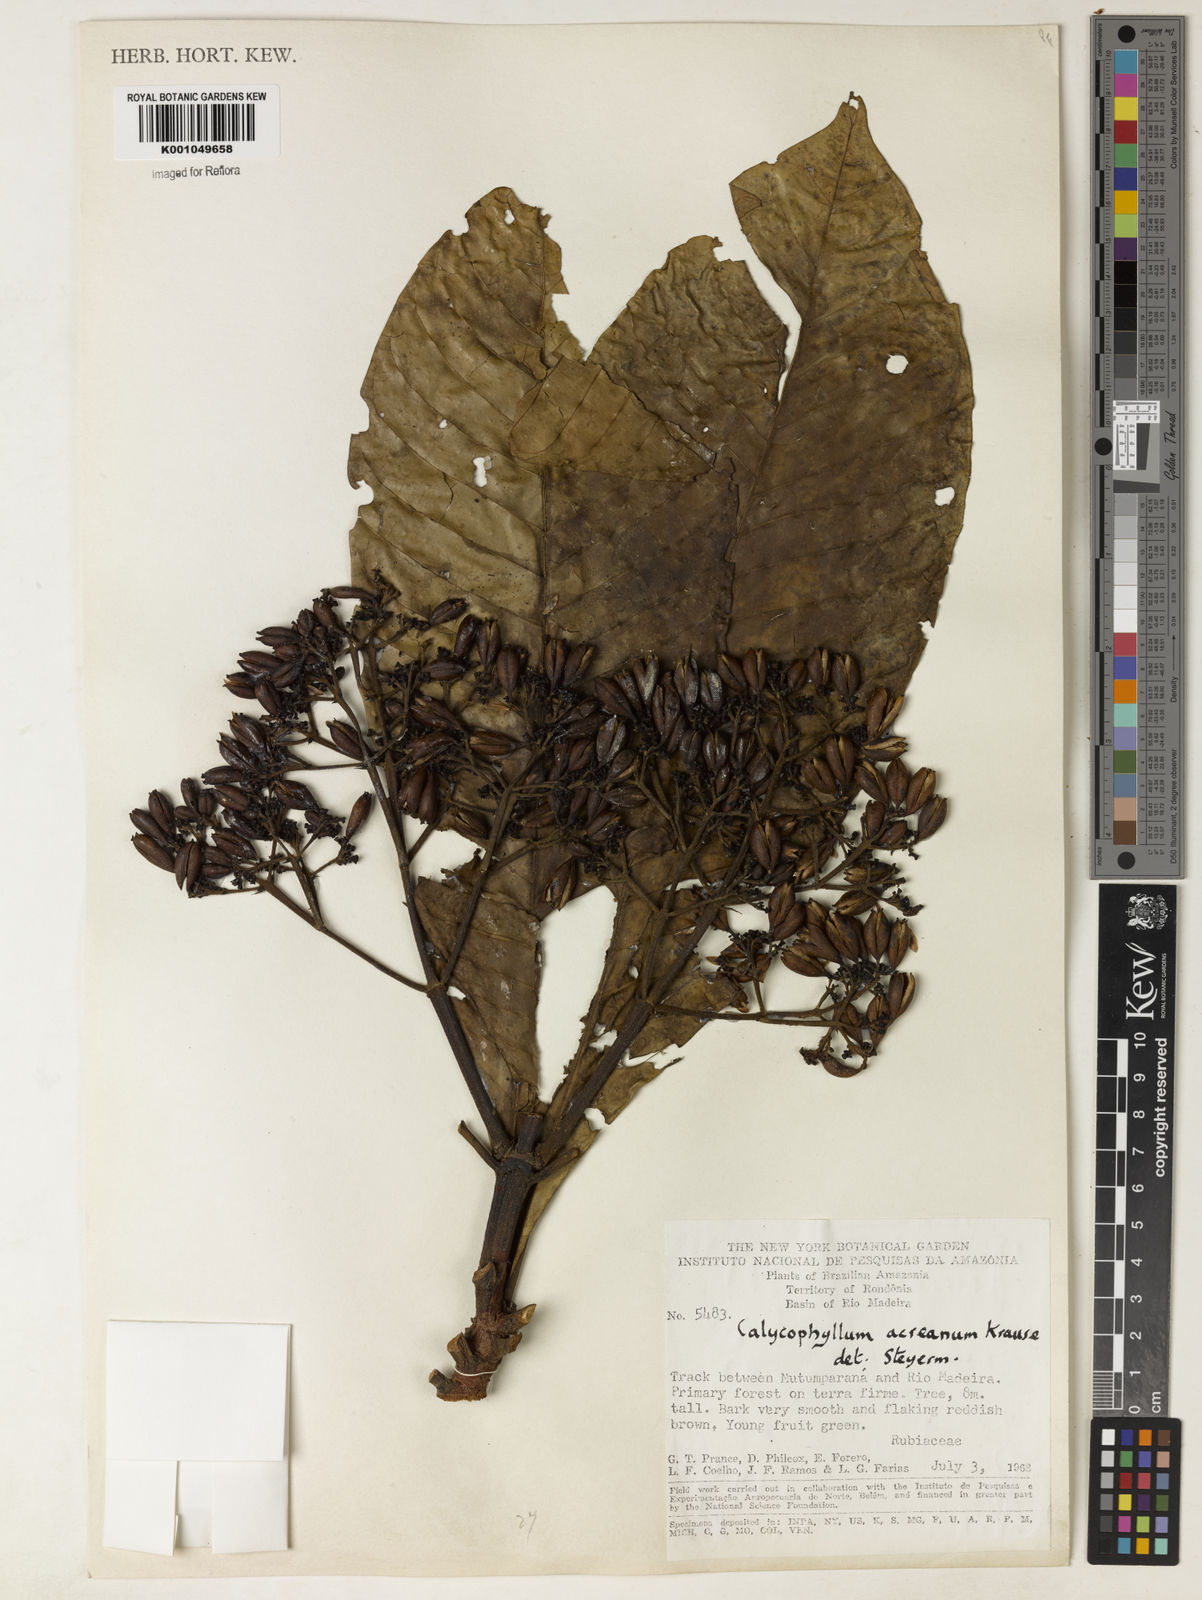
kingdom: Plantae
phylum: Tracheophyta
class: Magnoliopsida
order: Gentianales
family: Rubiaceae
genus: Calycophyllum
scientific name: Calycophyllum megistocaulum
